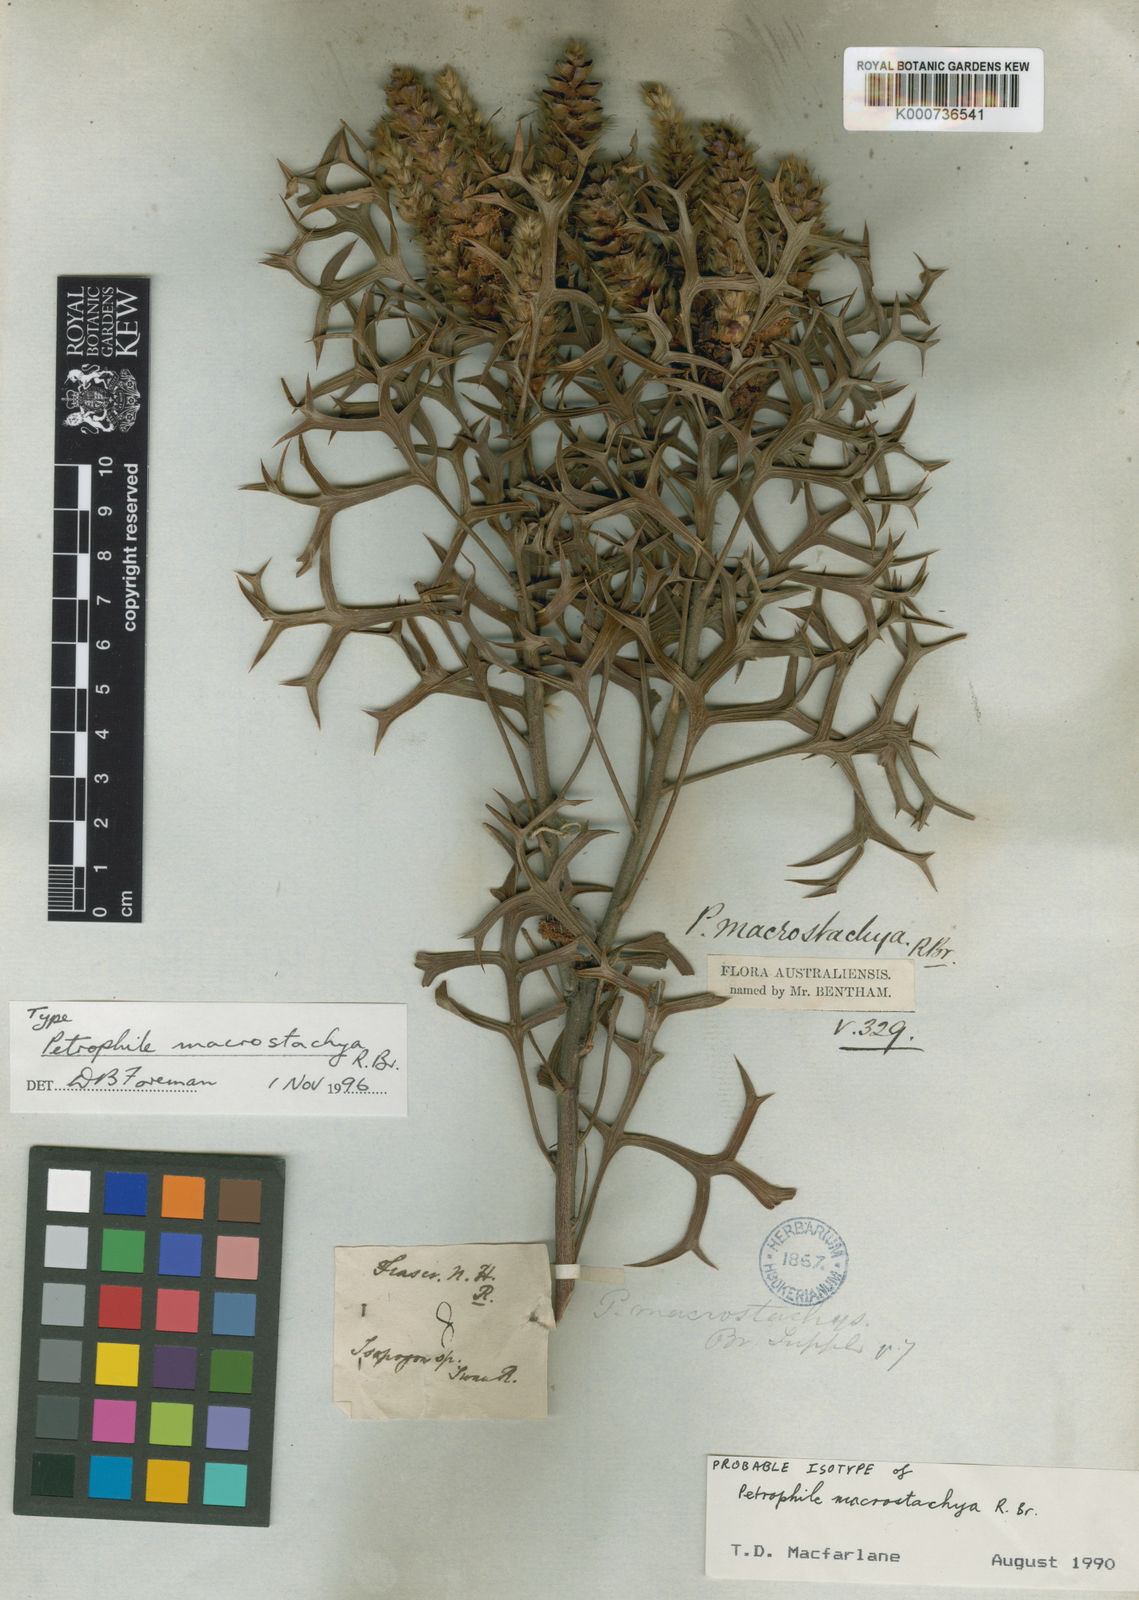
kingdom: Plantae
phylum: Tracheophyta
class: Magnoliopsida
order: Proteales
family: Proteaceae
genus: Petrophile
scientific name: Petrophile macrostachya
